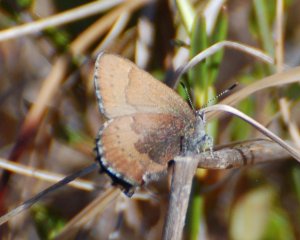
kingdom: Animalia
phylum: Arthropoda
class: Insecta
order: Lepidoptera
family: Lycaenidae
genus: Incisalia
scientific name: Incisalia irioides
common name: Brown Elfin
